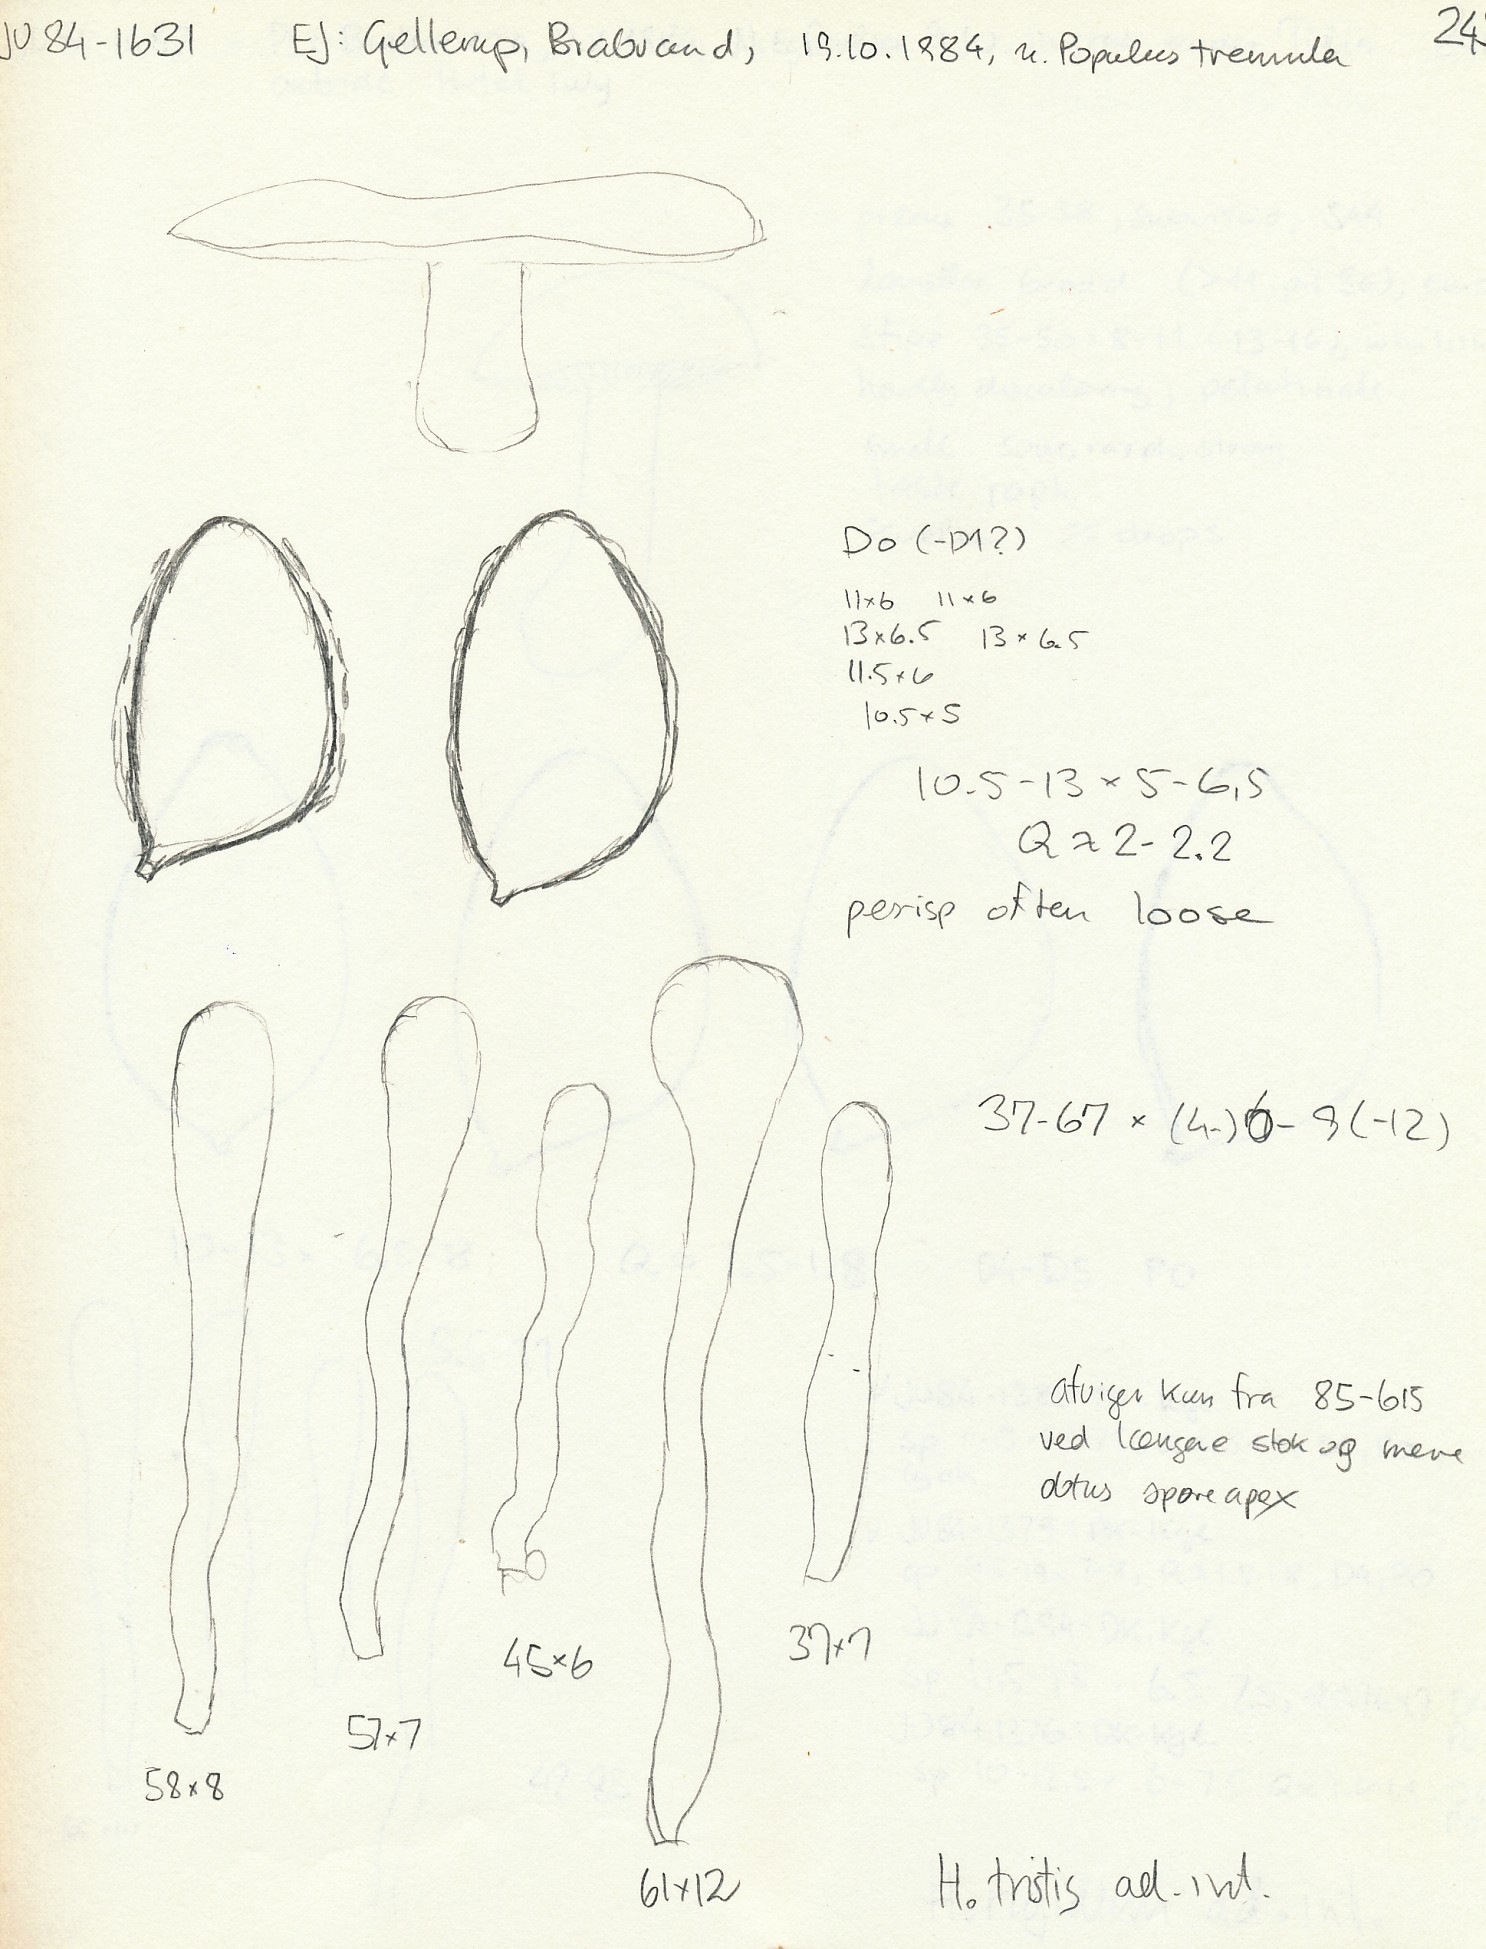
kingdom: Fungi
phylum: Basidiomycota
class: Agaricomycetes
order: Agaricales
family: Hymenogastraceae
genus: Hebeloma
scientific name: Hebeloma aanenii
